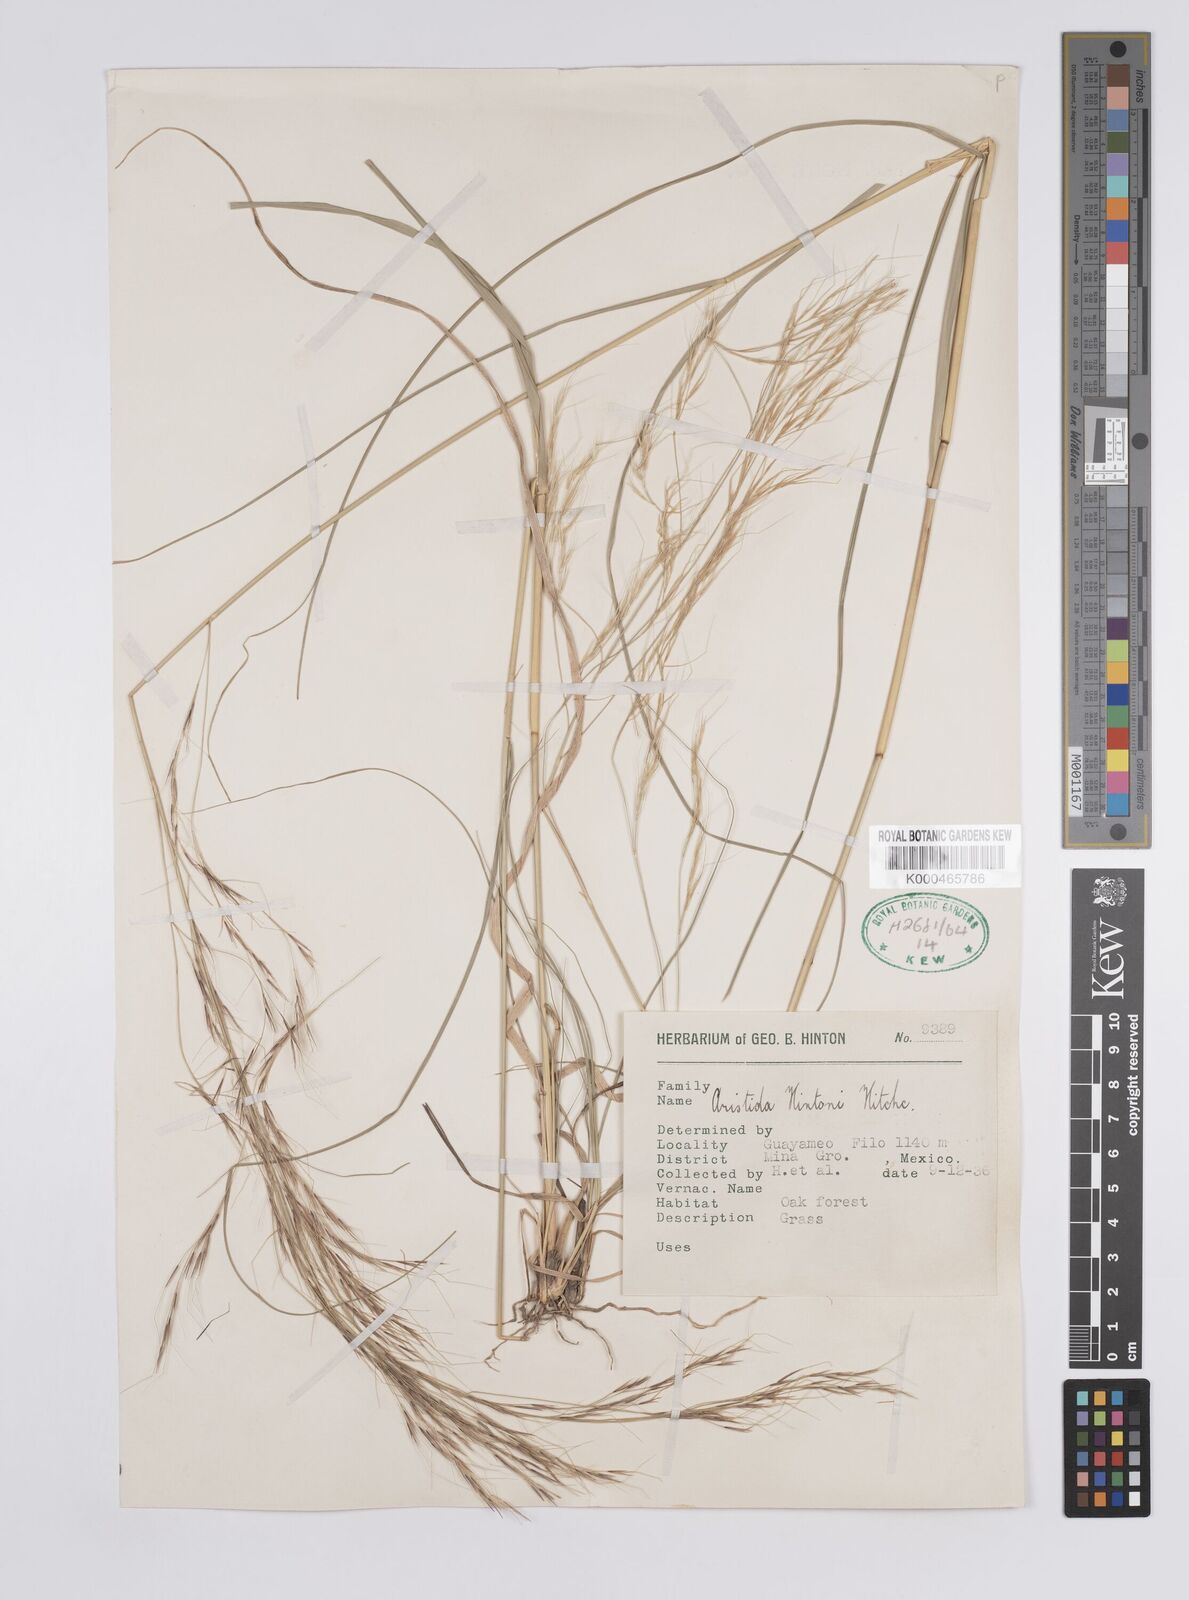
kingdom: Plantae
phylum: Tracheophyta
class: Liliopsida
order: Poales
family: Poaceae
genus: Aristida
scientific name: Aristida hintonii
